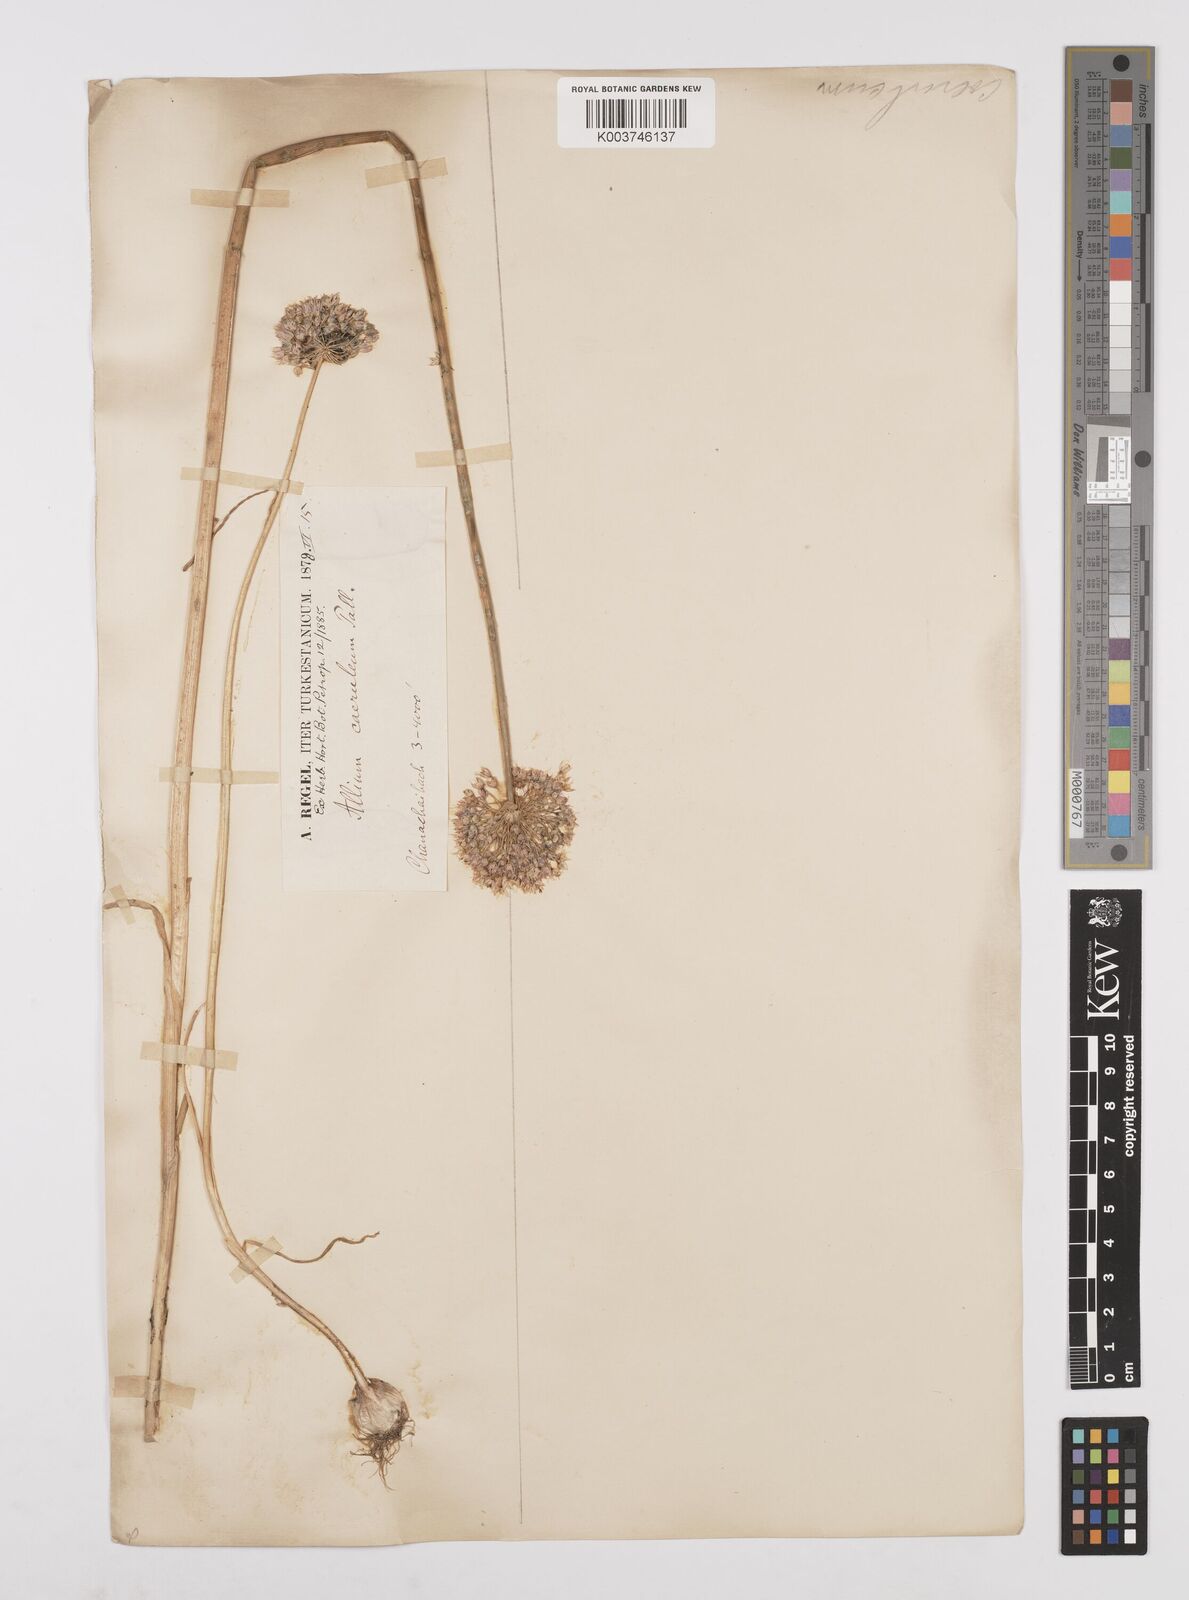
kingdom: Plantae
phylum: Tracheophyta
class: Liliopsida
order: Asparagales
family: Amaryllidaceae
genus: Allium
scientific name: Allium caeruleum
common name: Blue-of-the-heavens
